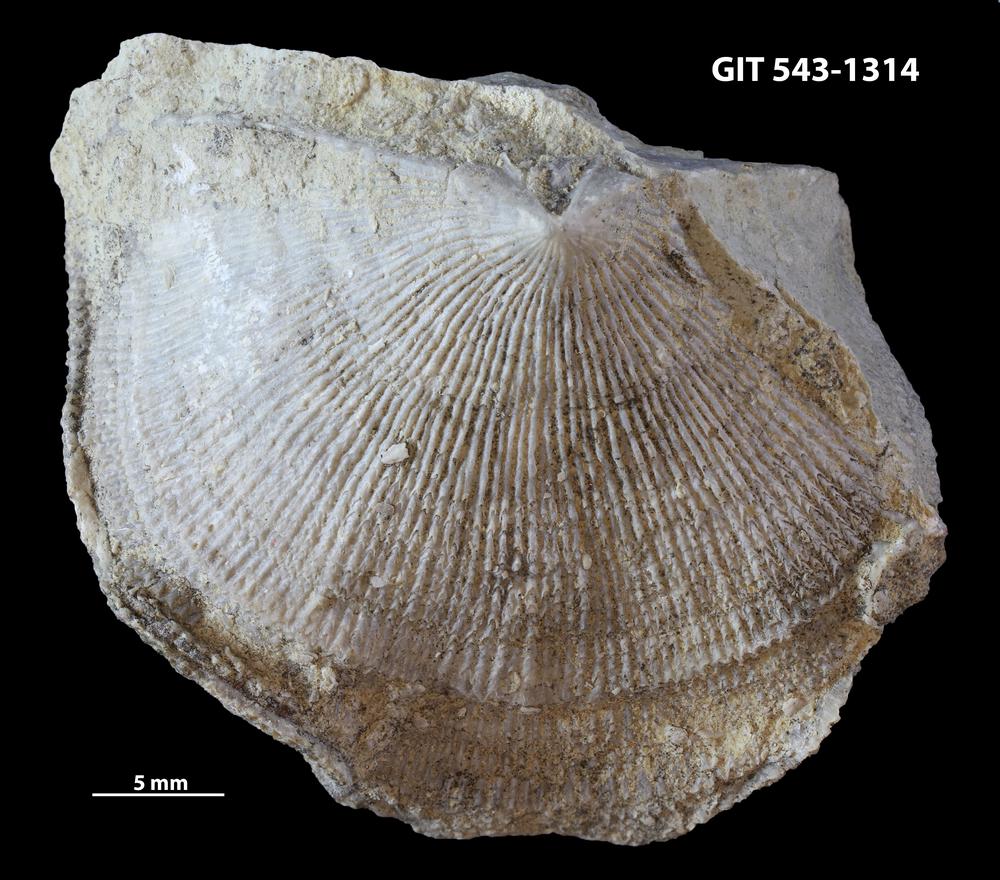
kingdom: Animalia
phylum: Brachiopoda
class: Rhynchonellata
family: Clitambonitidae
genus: Ilmarinia
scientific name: Ilmarinia
